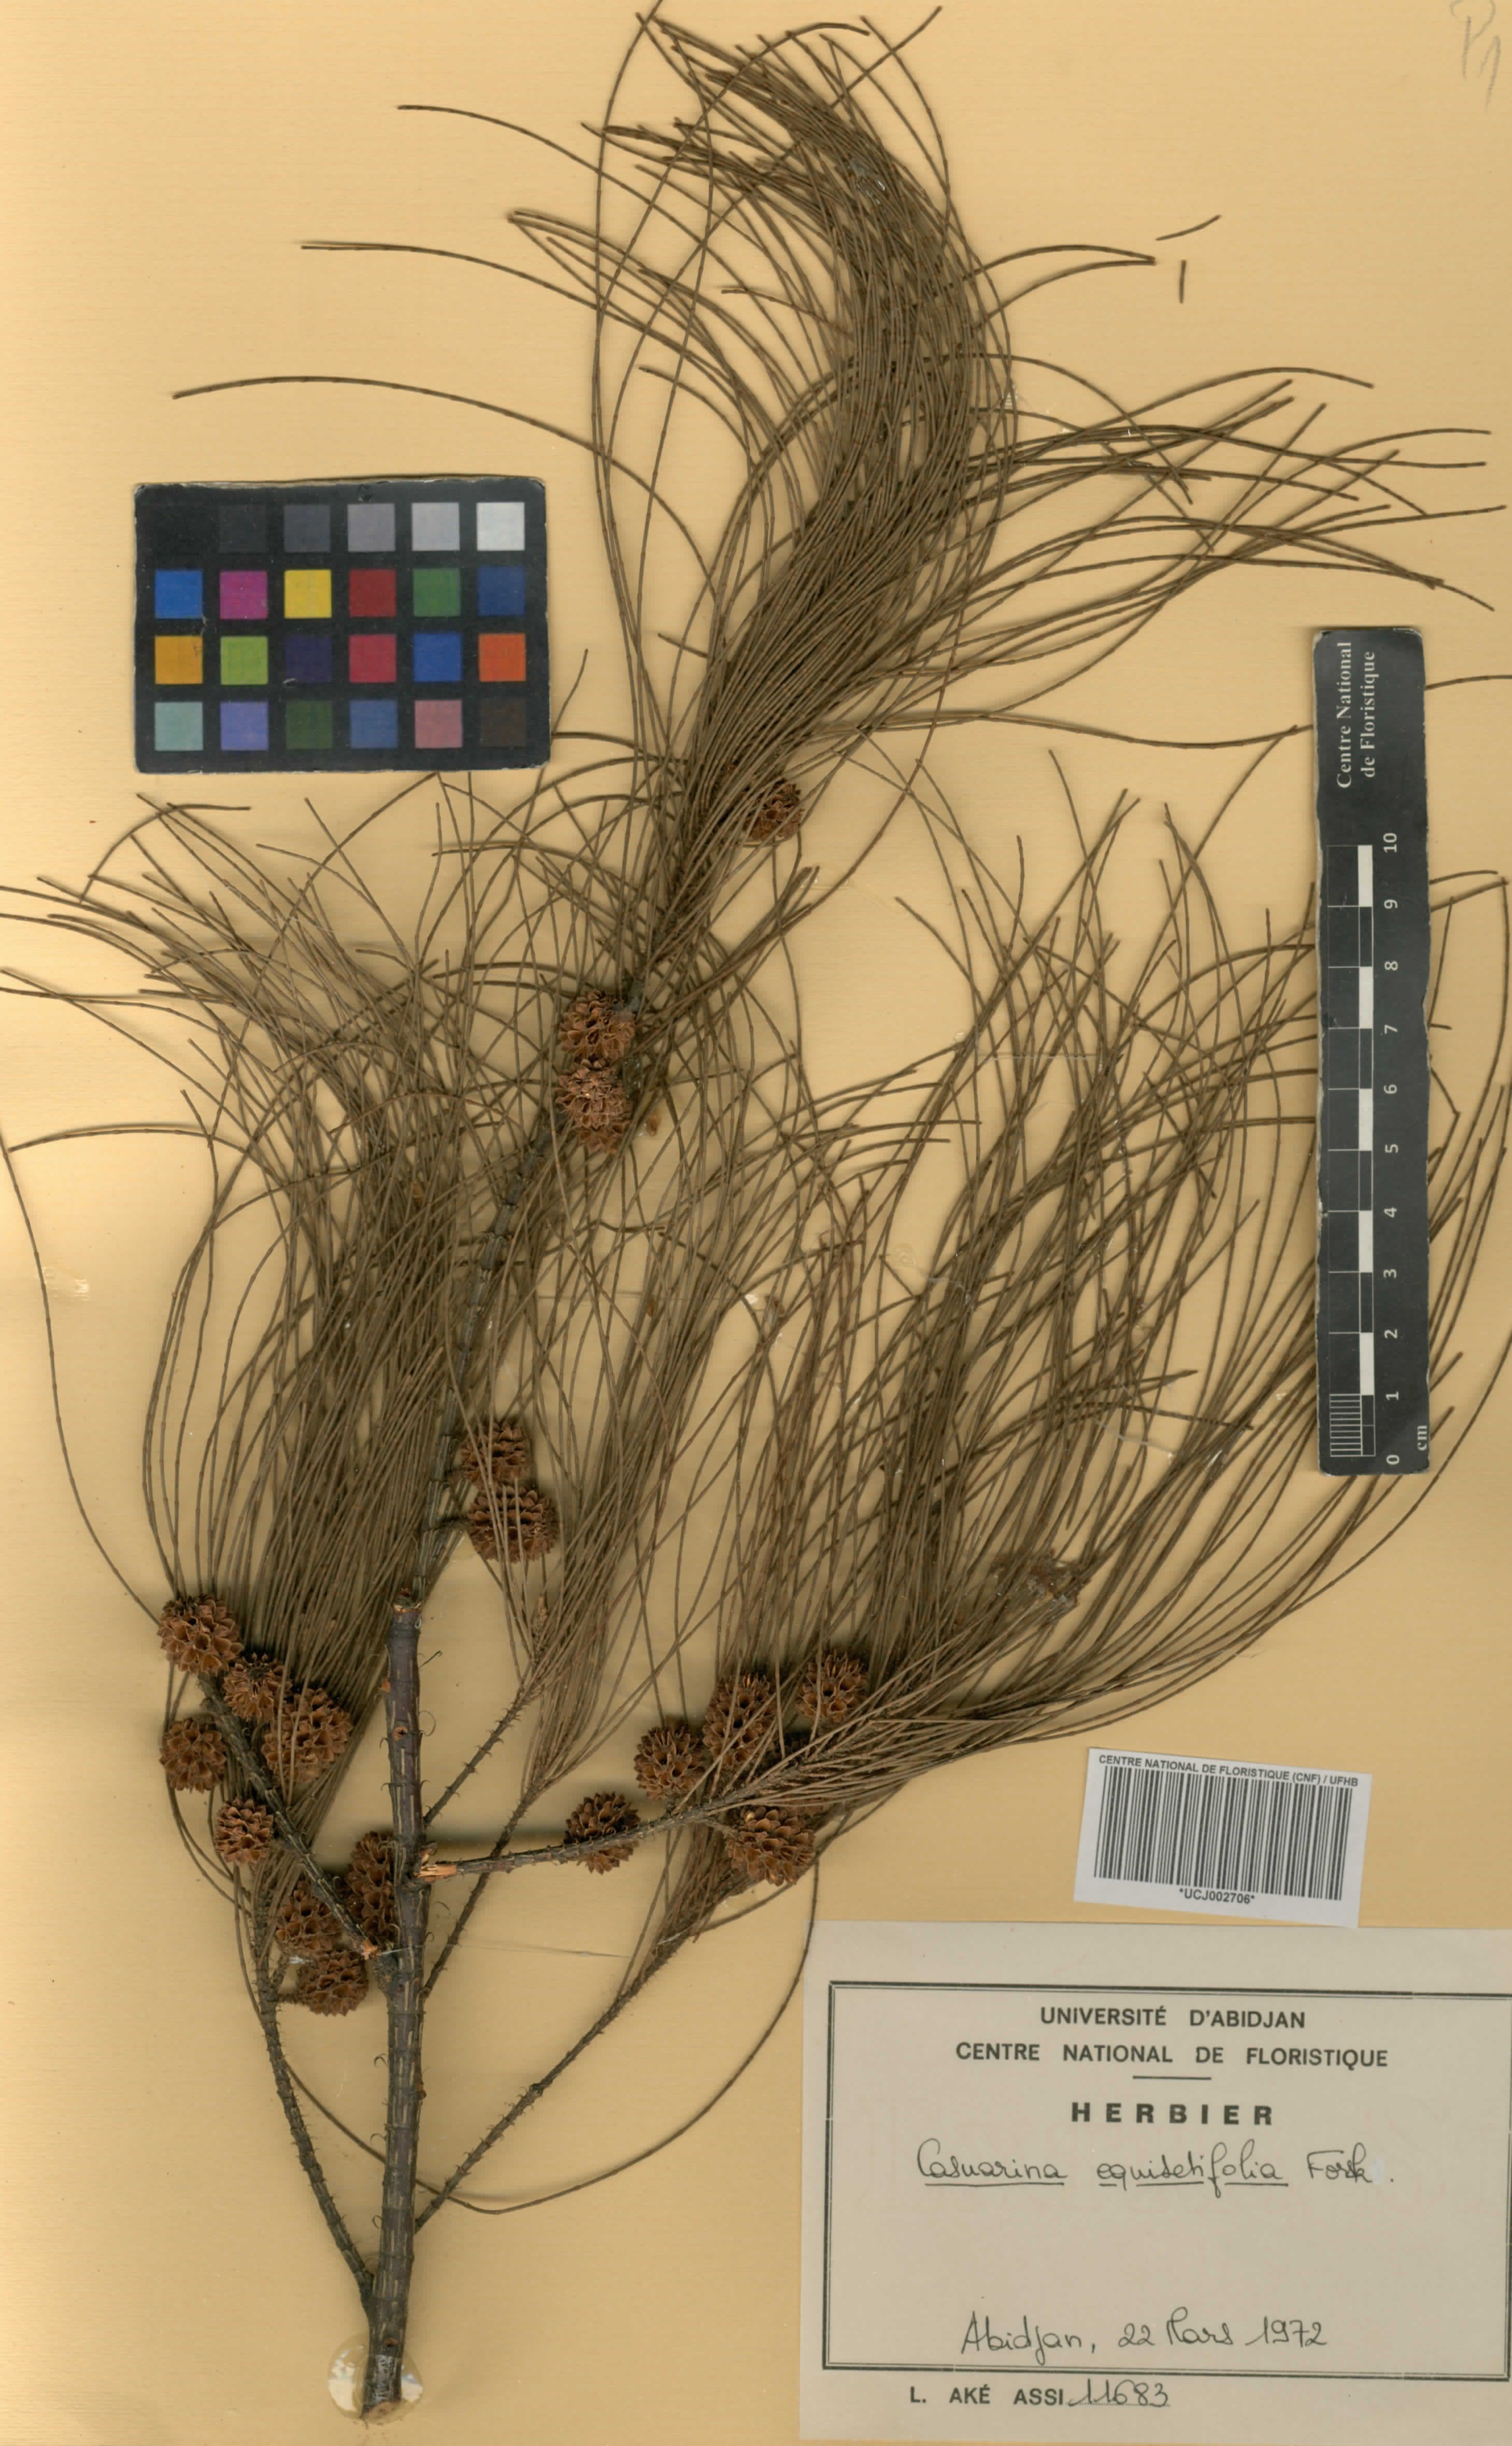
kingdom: Plantae
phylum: Tracheophyta
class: Magnoliopsida
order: Fagales
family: Casuarinaceae
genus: Casuarina
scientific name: Casuarina equisetifolia
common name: Beach sheoak
